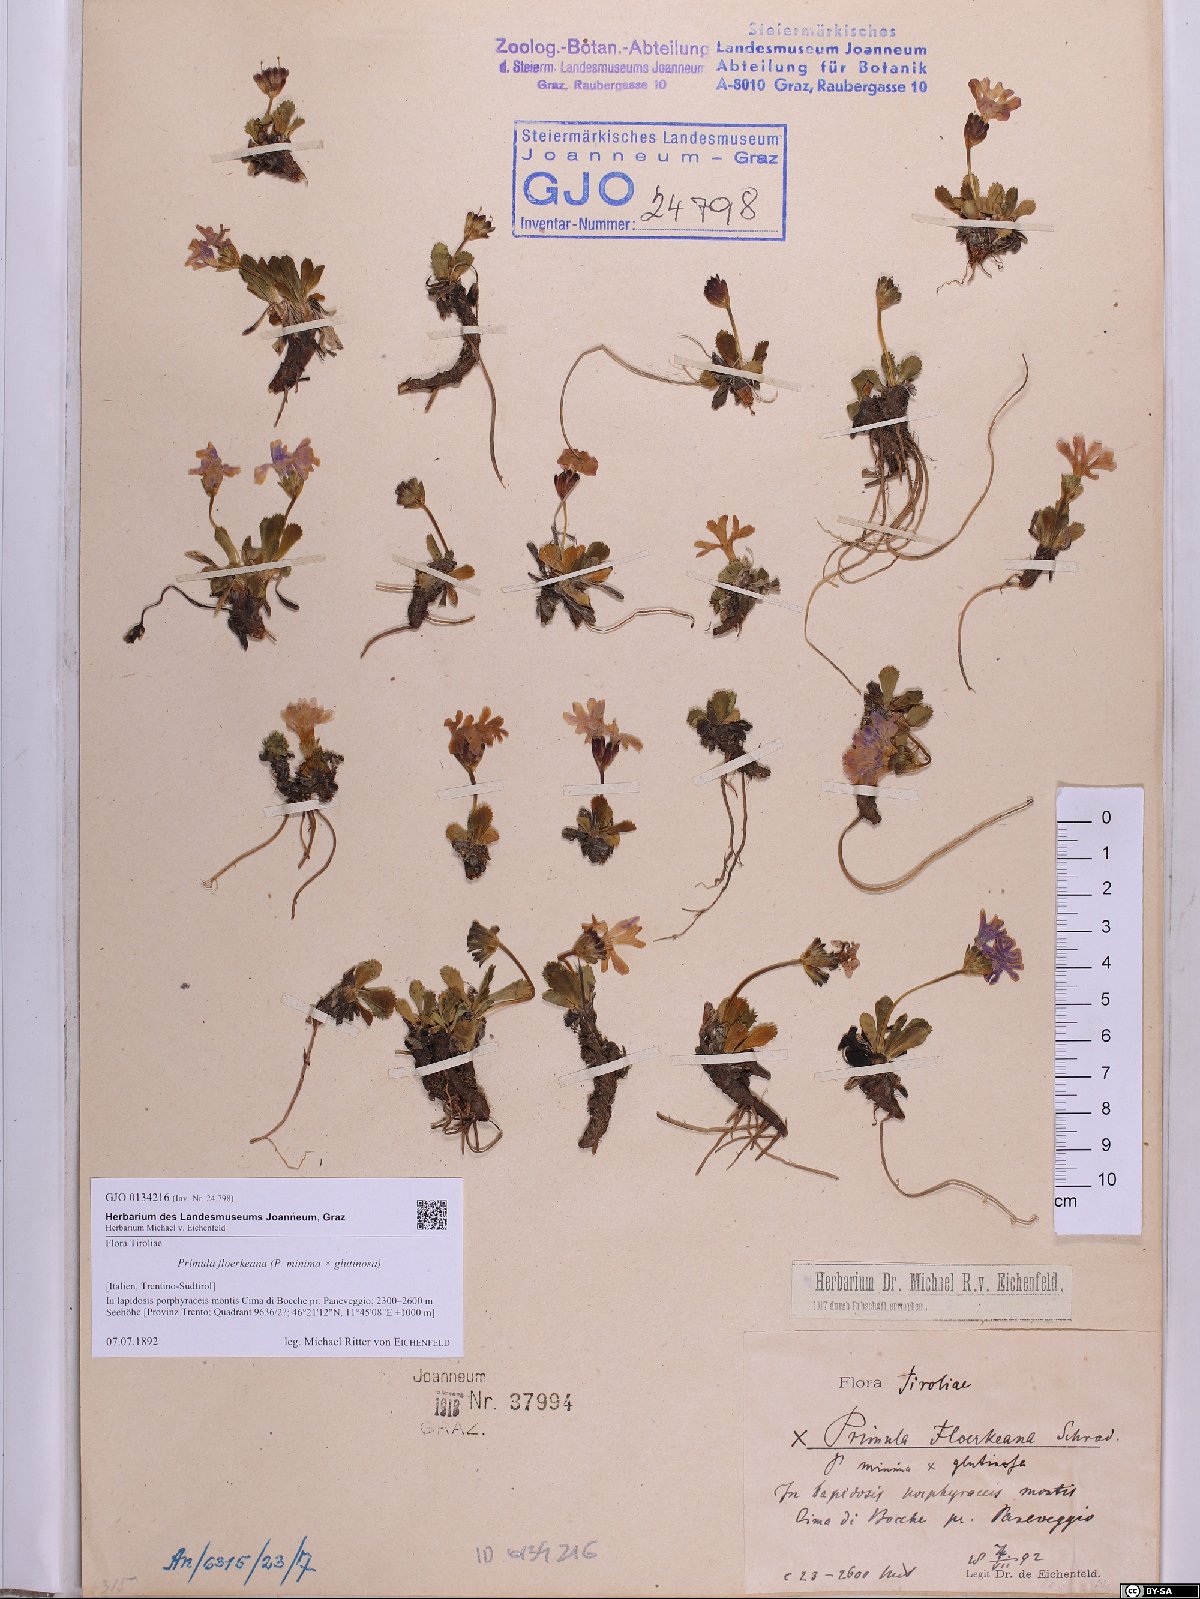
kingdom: Plantae
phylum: Tracheophyta
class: Magnoliopsida
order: Ericales
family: Primulaceae
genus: Primula
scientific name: Primula floerkeana
